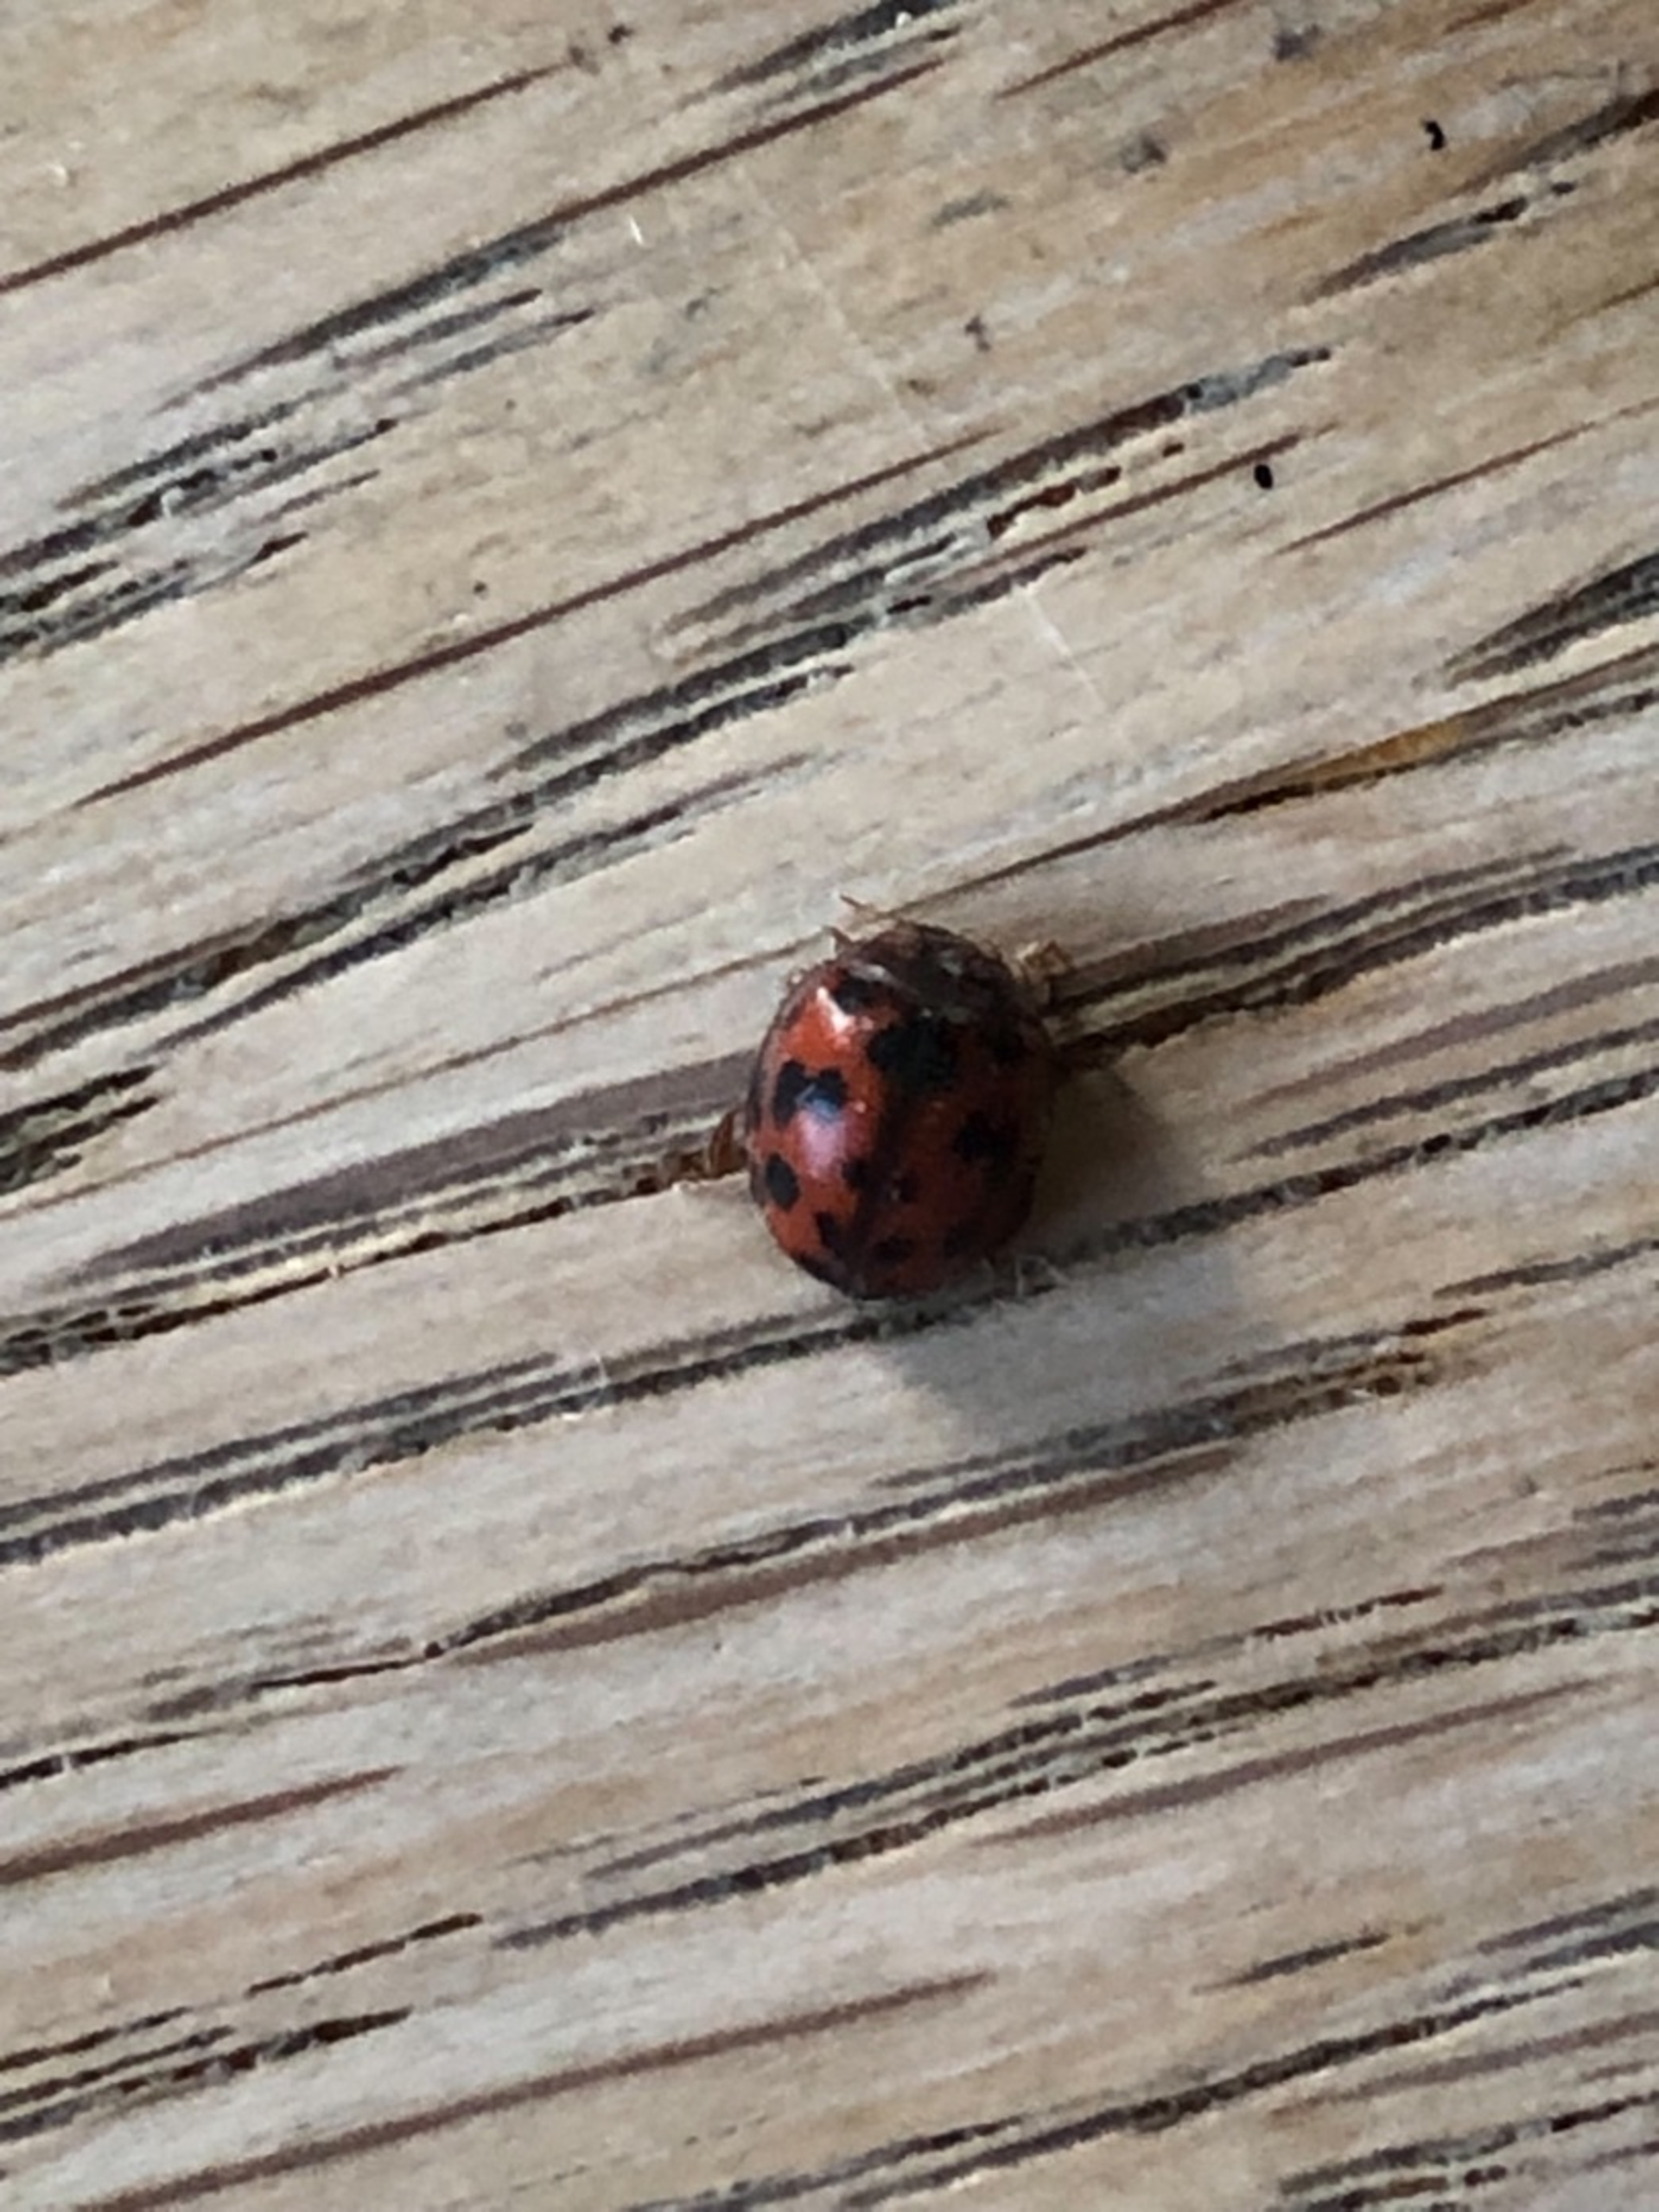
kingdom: Animalia
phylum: Arthropoda
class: Insecta
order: Coleoptera
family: Coccinellidae
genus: Subcoccinella
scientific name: Subcoccinella vigintiquatuorpunctata
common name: Fireogtyveplettet mariehøne
